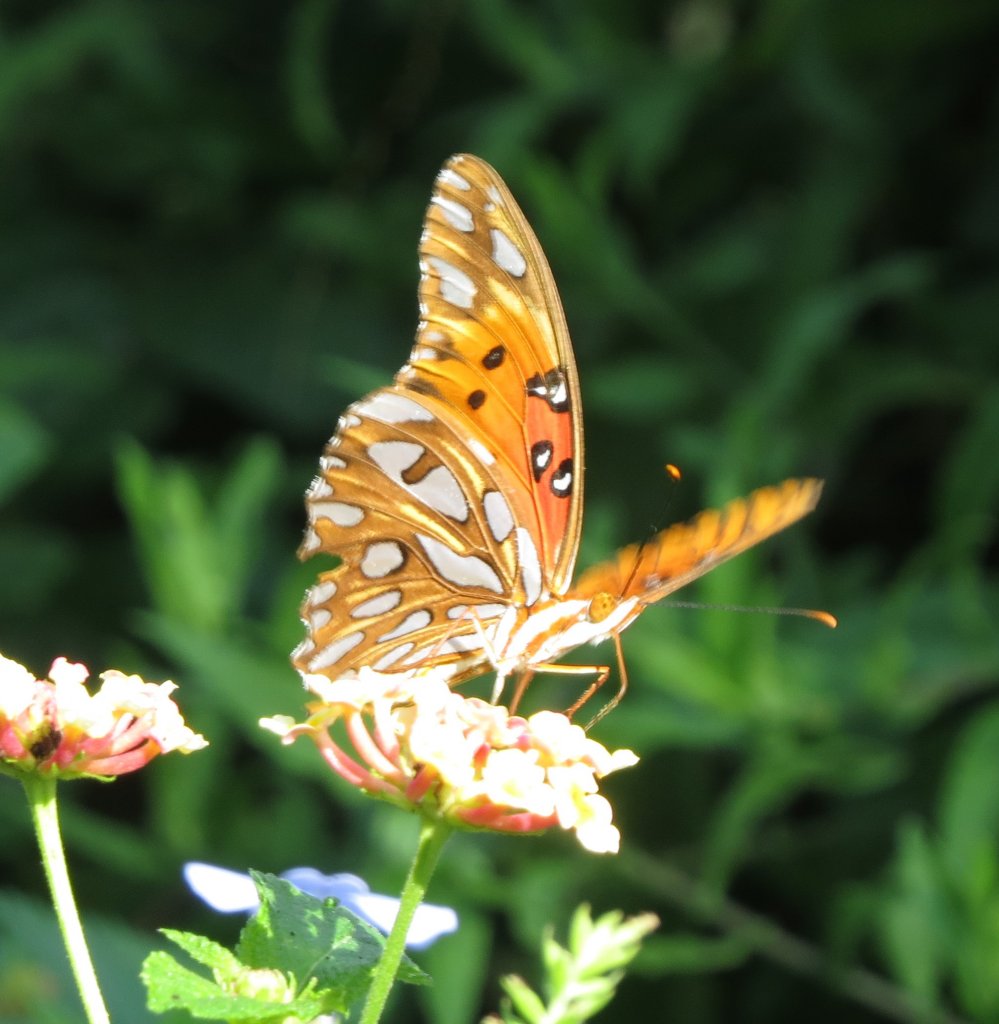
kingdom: Animalia
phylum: Arthropoda
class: Insecta
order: Lepidoptera
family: Nymphalidae
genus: Dione
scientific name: Dione vanillae
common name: Gulf Fritillary
